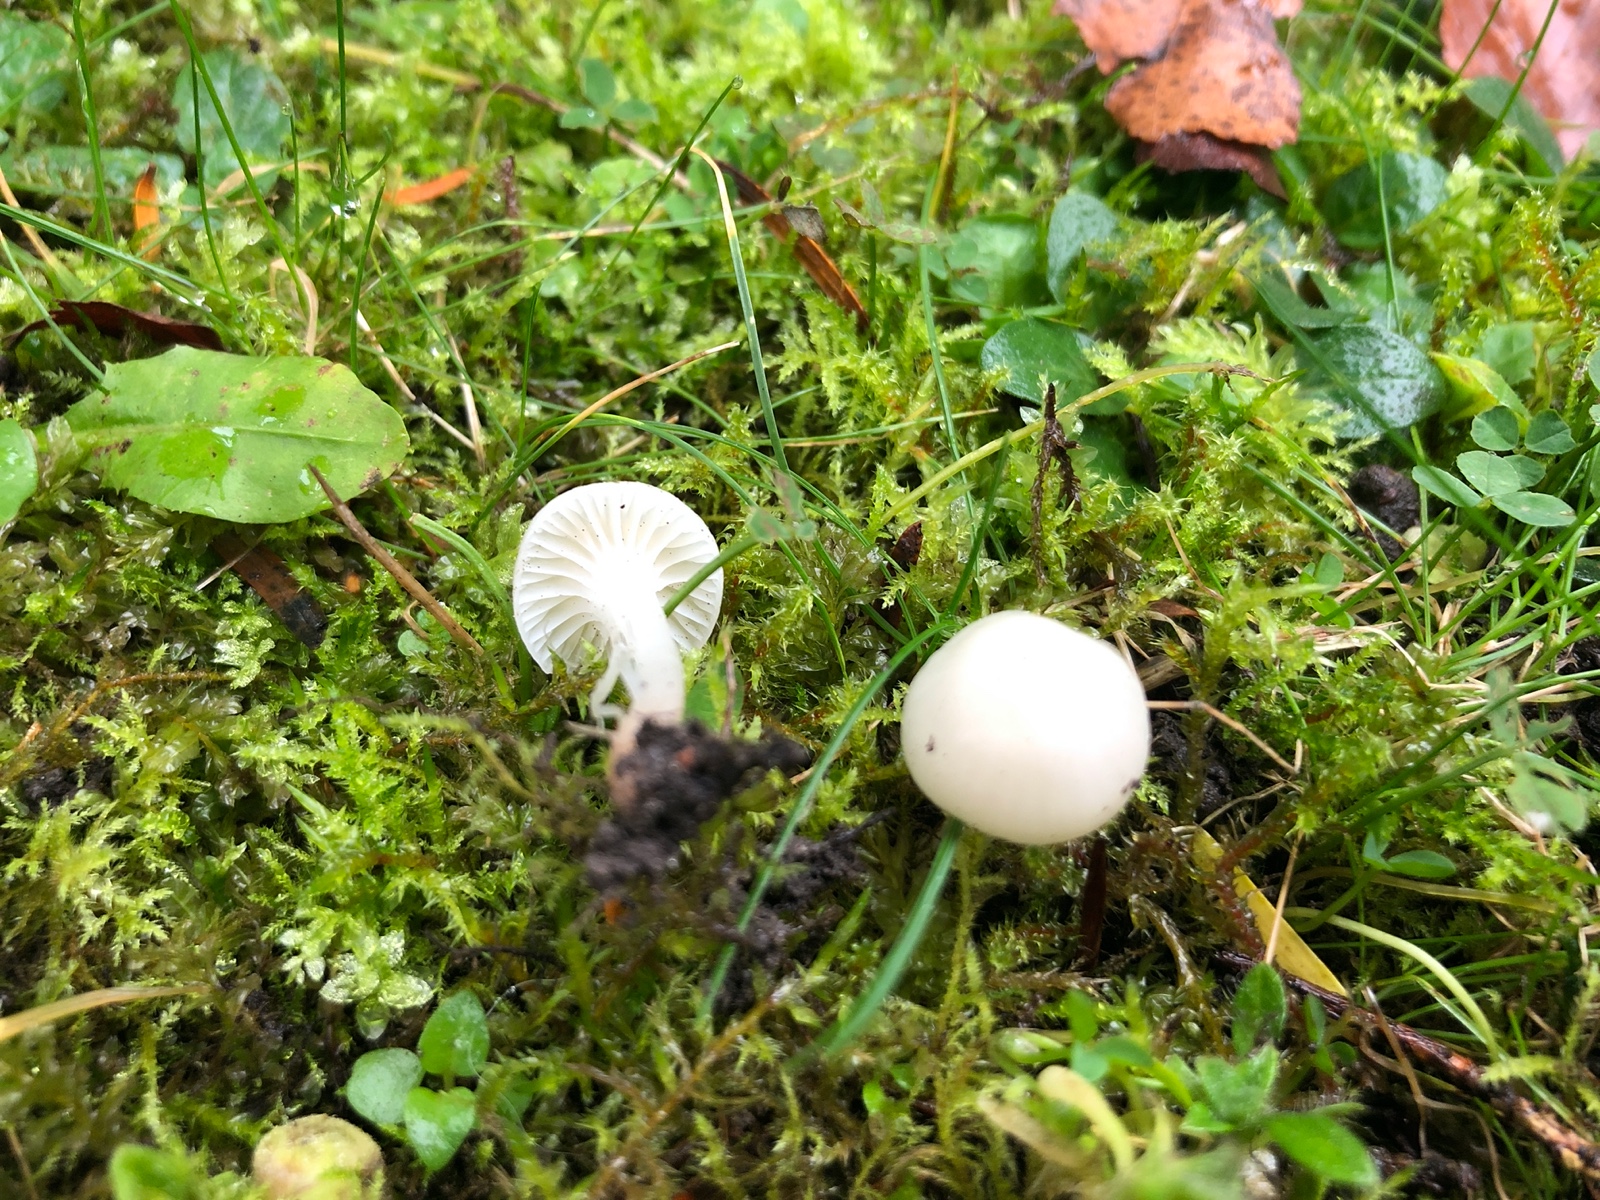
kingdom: Fungi
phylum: Basidiomycota
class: Agaricomycetes
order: Agaricales
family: Hygrophoraceae
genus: Cuphophyllus
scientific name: Cuphophyllus virgineus
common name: snehvid vokshat
